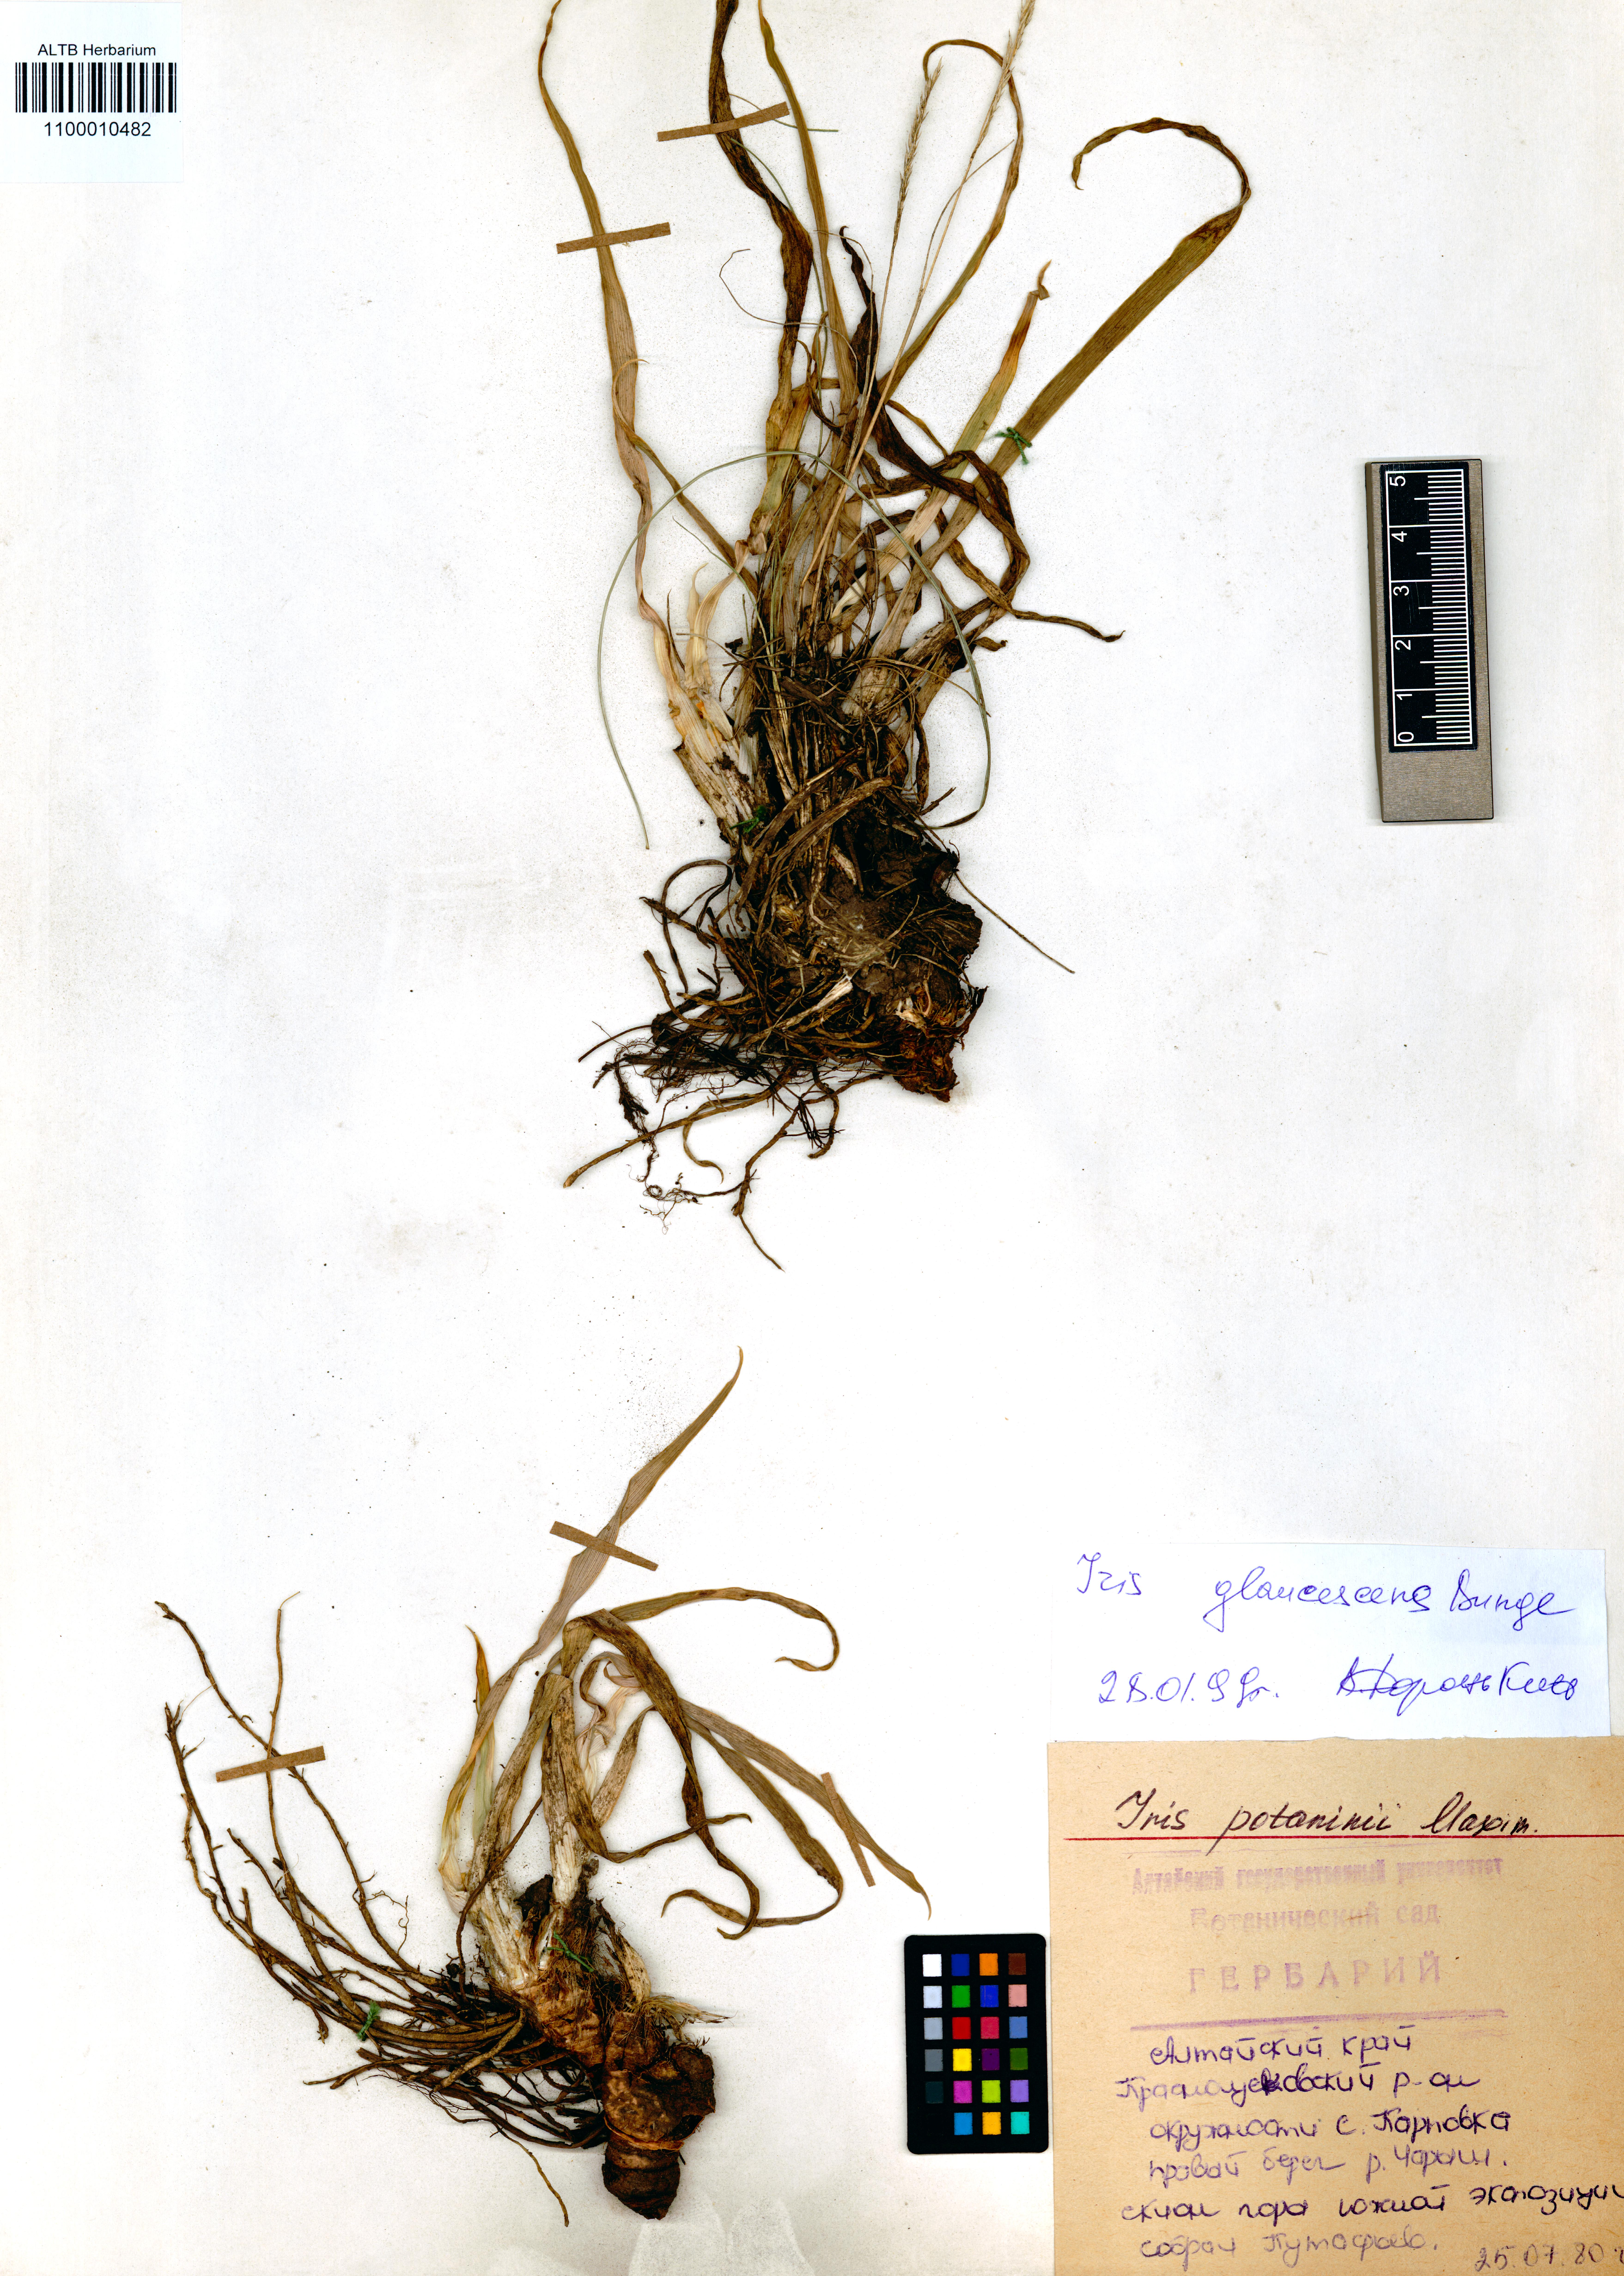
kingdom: Plantae
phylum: Tracheophyta
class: Liliopsida
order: Asparagales
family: Iridaceae
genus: Iris
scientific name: Iris glaucescens
